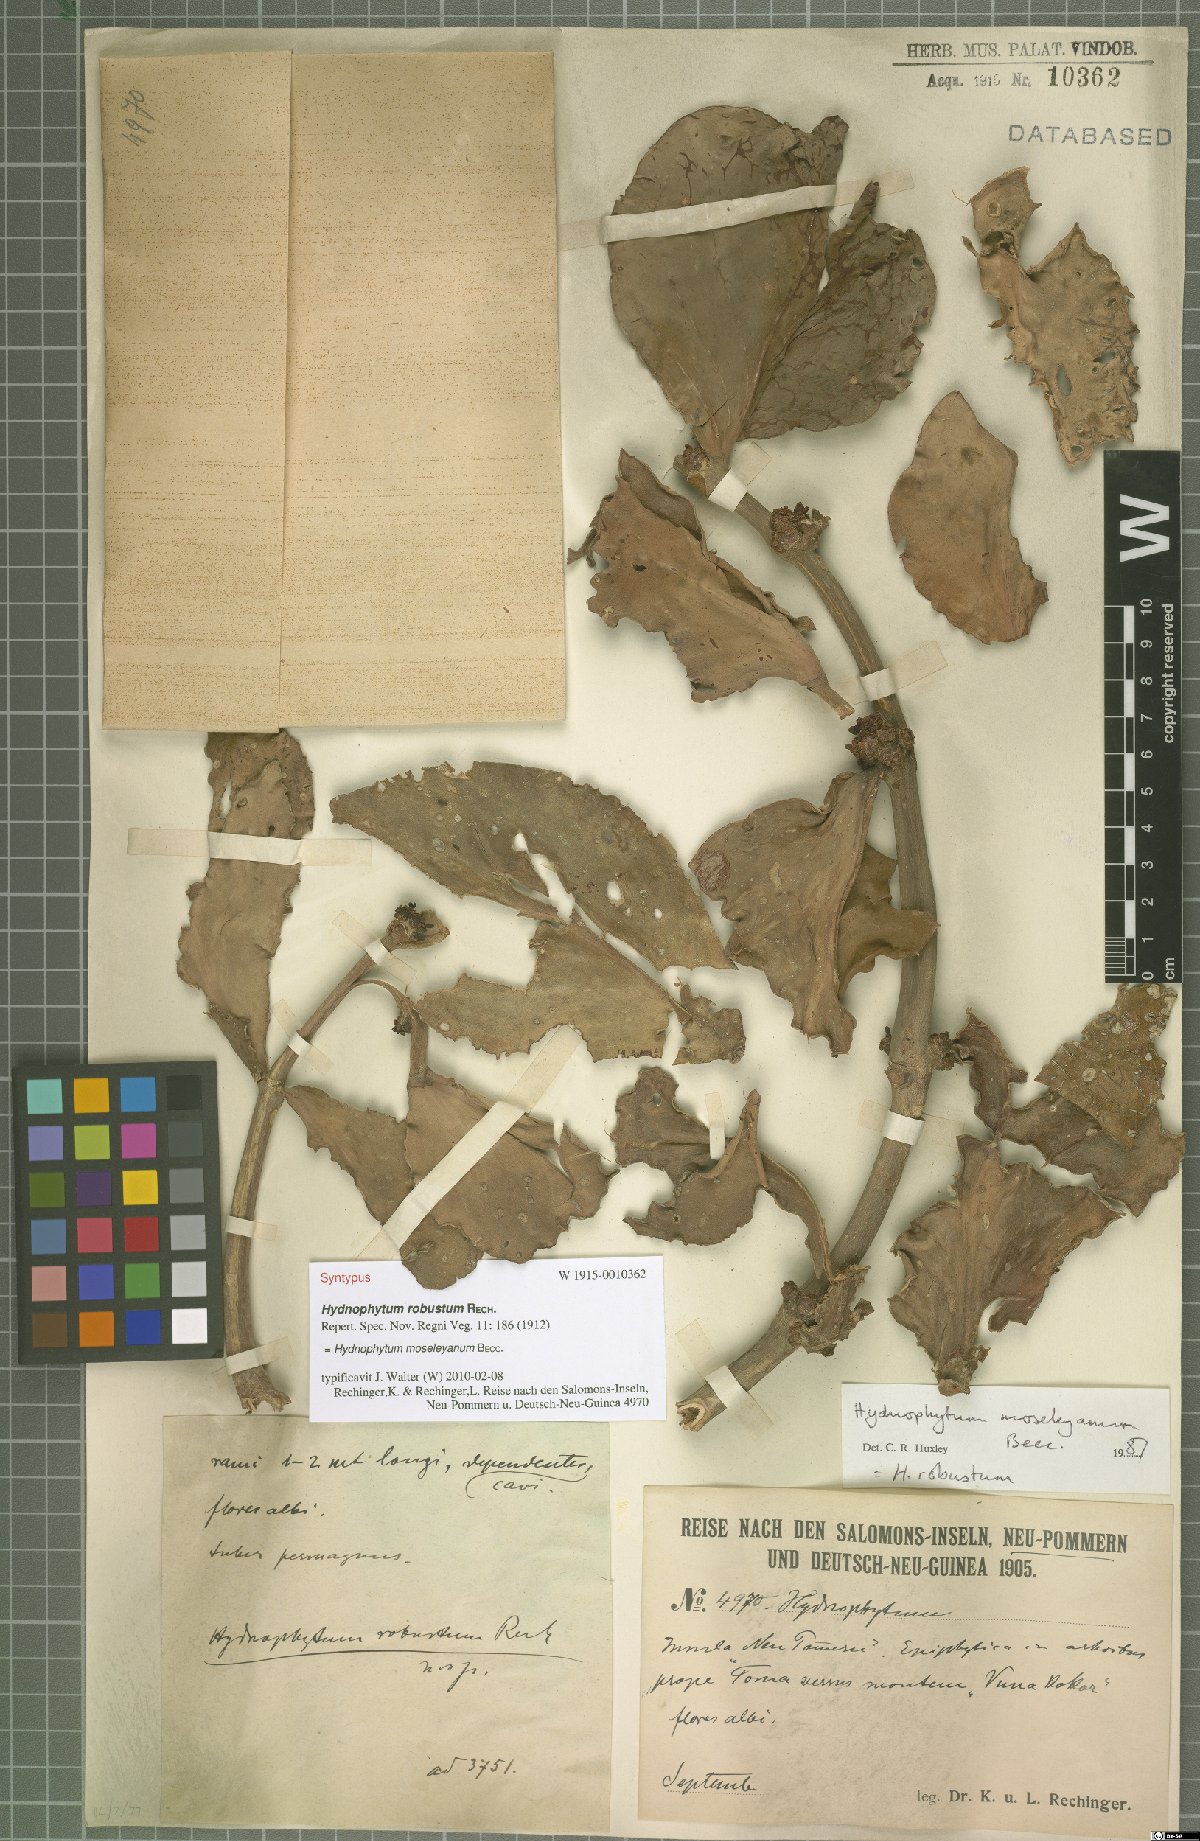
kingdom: Plantae
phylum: Tracheophyta
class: Magnoliopsida
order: Gentianales
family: Rubiaceae
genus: Hydnophytum
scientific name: Hydnophytum moseleyanum
